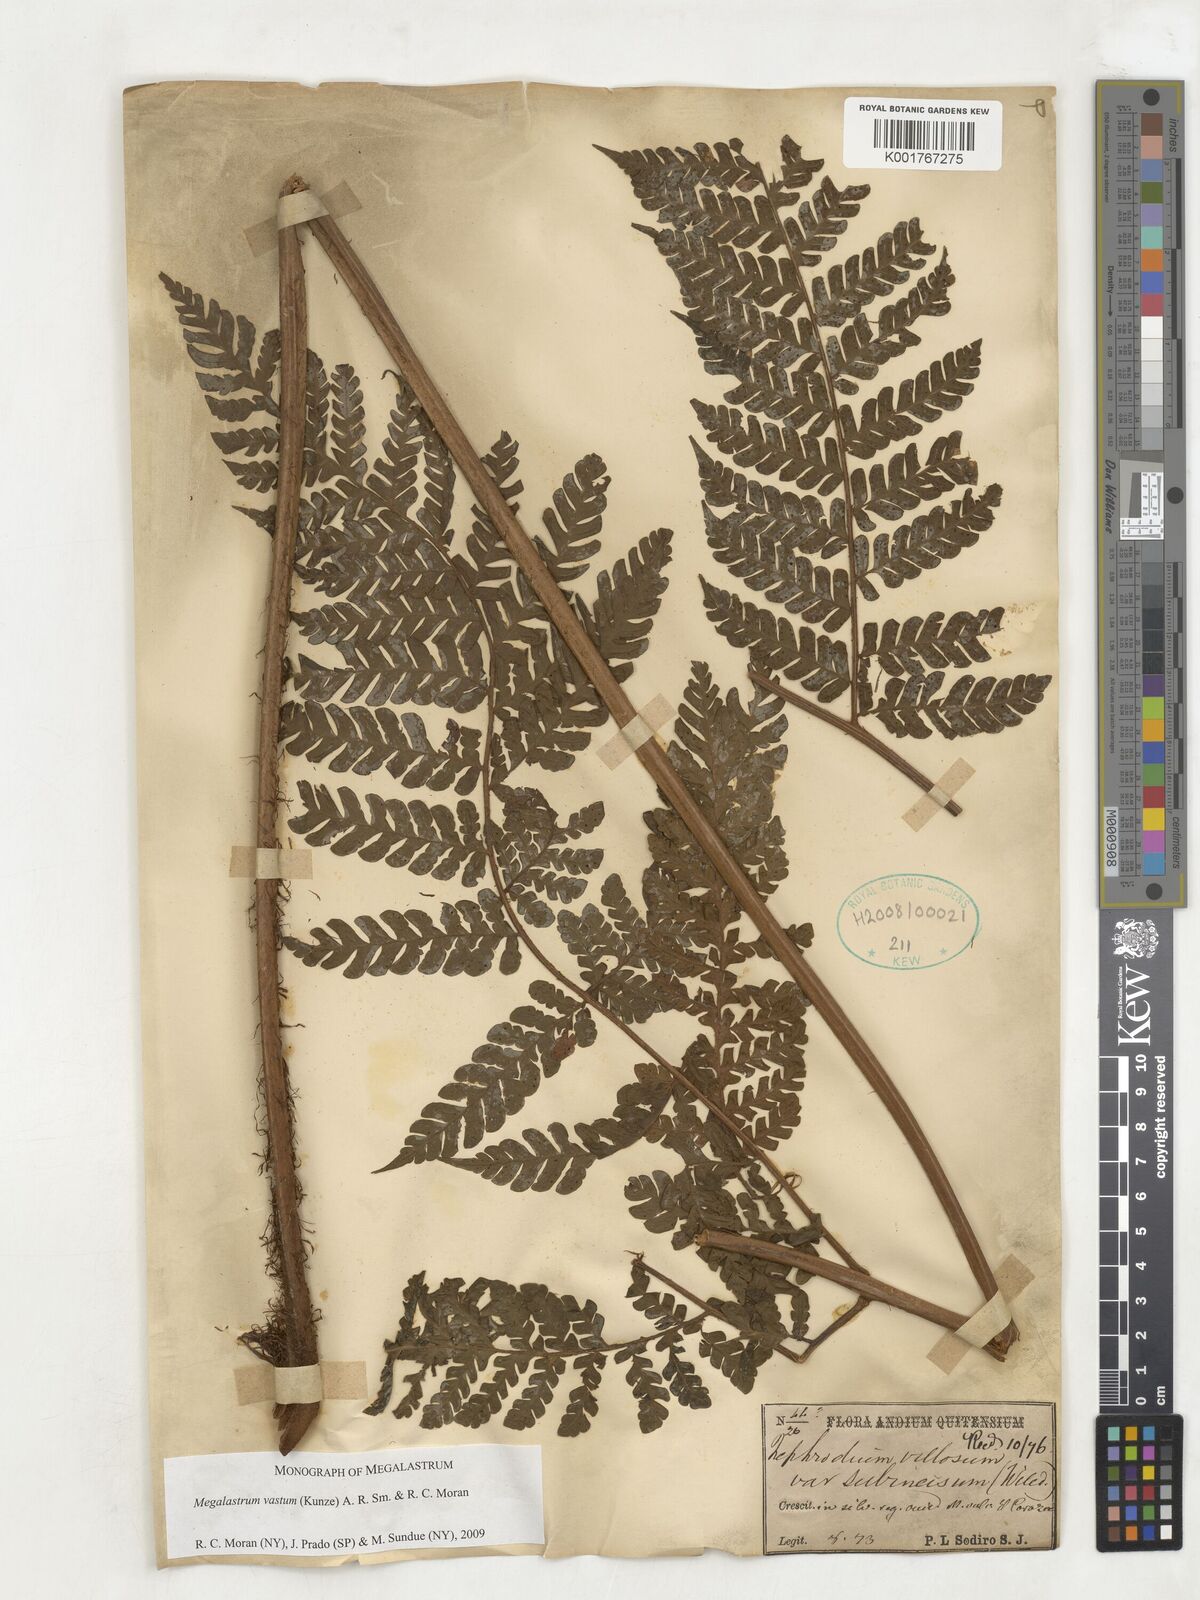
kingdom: Plantae
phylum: Tracheophyta
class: Polypodiopsida
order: Polypodiales
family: Dryopteridaceae
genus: Megalastrum
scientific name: Megalastrum vastum
